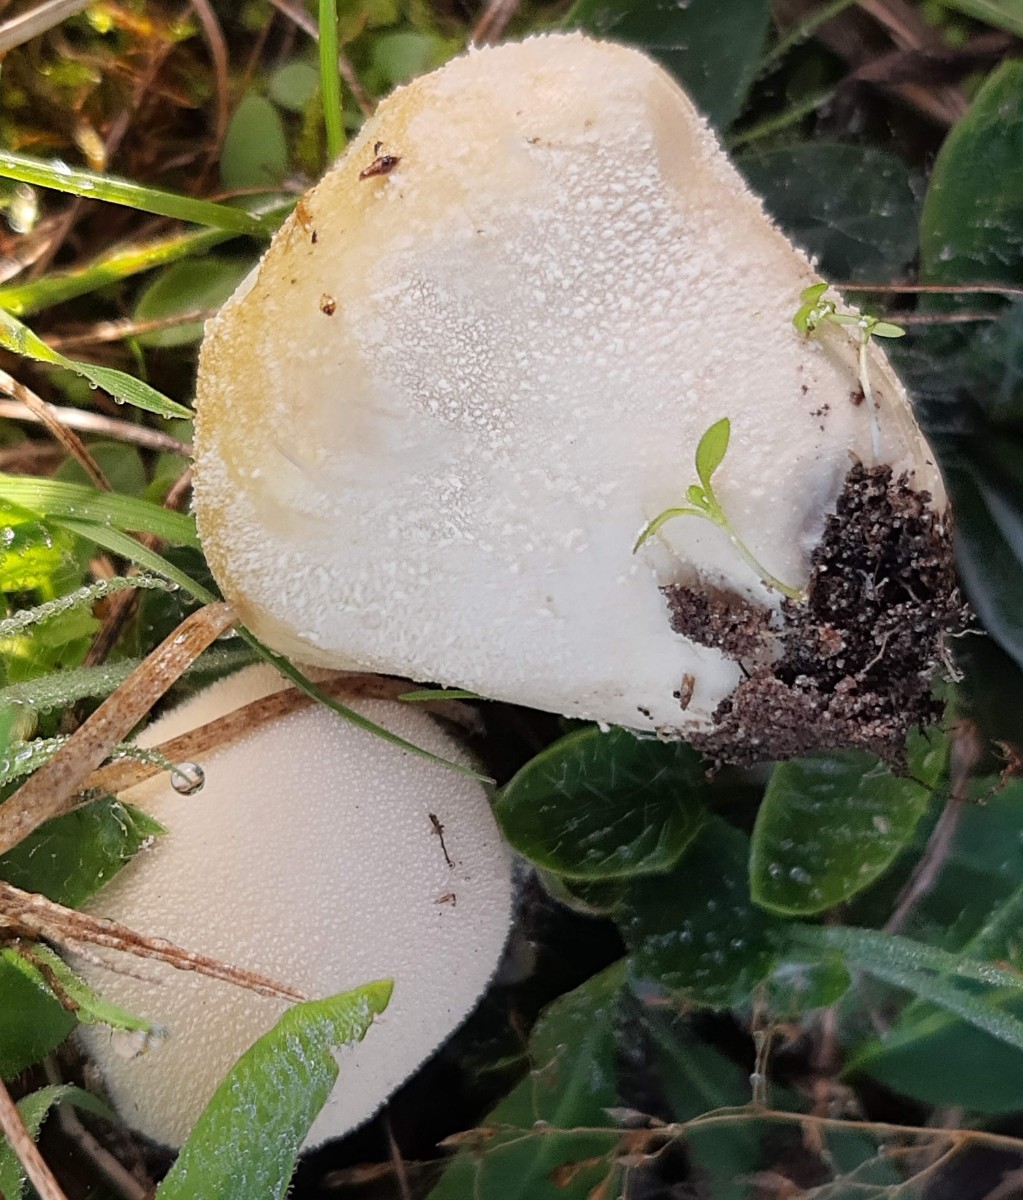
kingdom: Fungi
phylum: Basidiomycota
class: Agaricomycetes
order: Agaricales
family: Lycoperdaceae
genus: Lycoperdon
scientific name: Lycoperdon pratense
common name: flad støvbold
